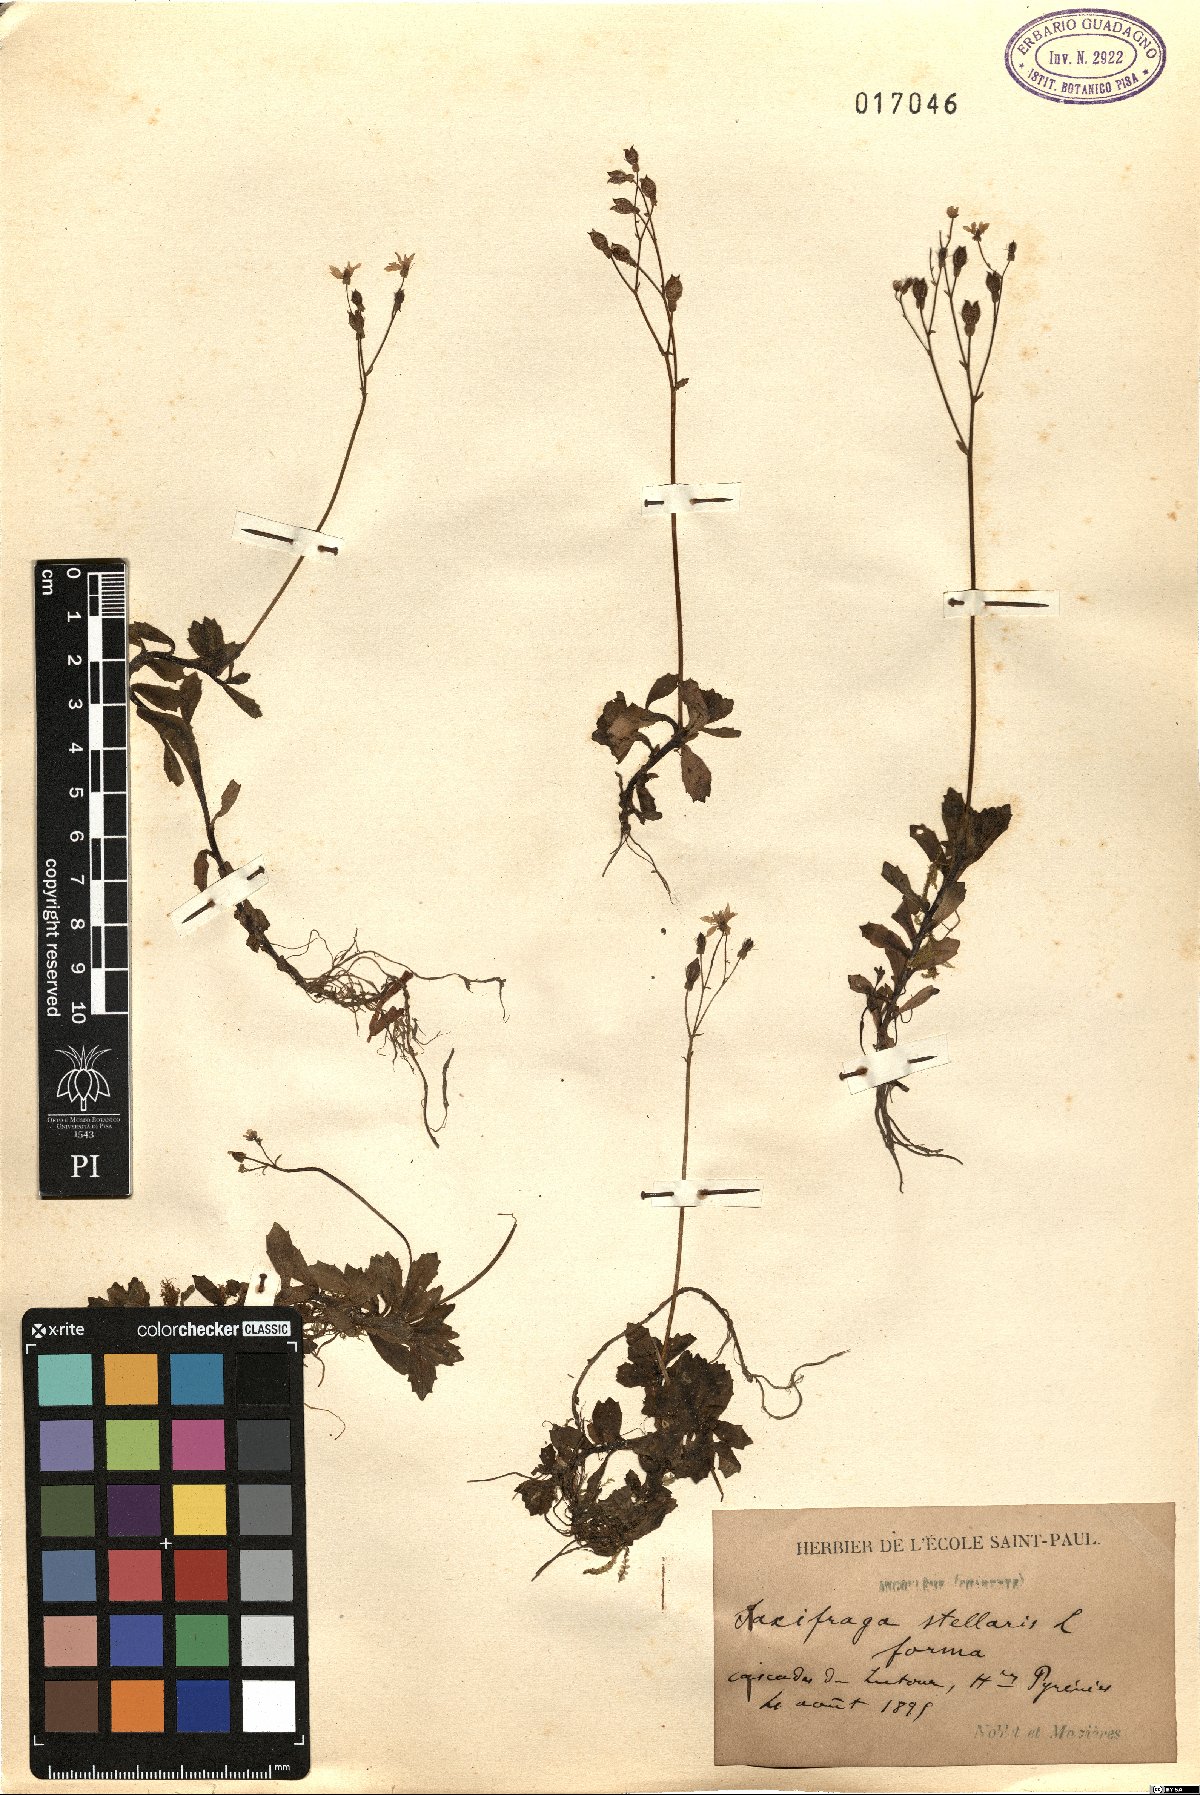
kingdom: Plantae
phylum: Tracheophyta
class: Magnoliopsida
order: Saxifragales
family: Saxifragaceae
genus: Micranthes
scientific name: Micranthes stellaris
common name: Starry saxifrage
